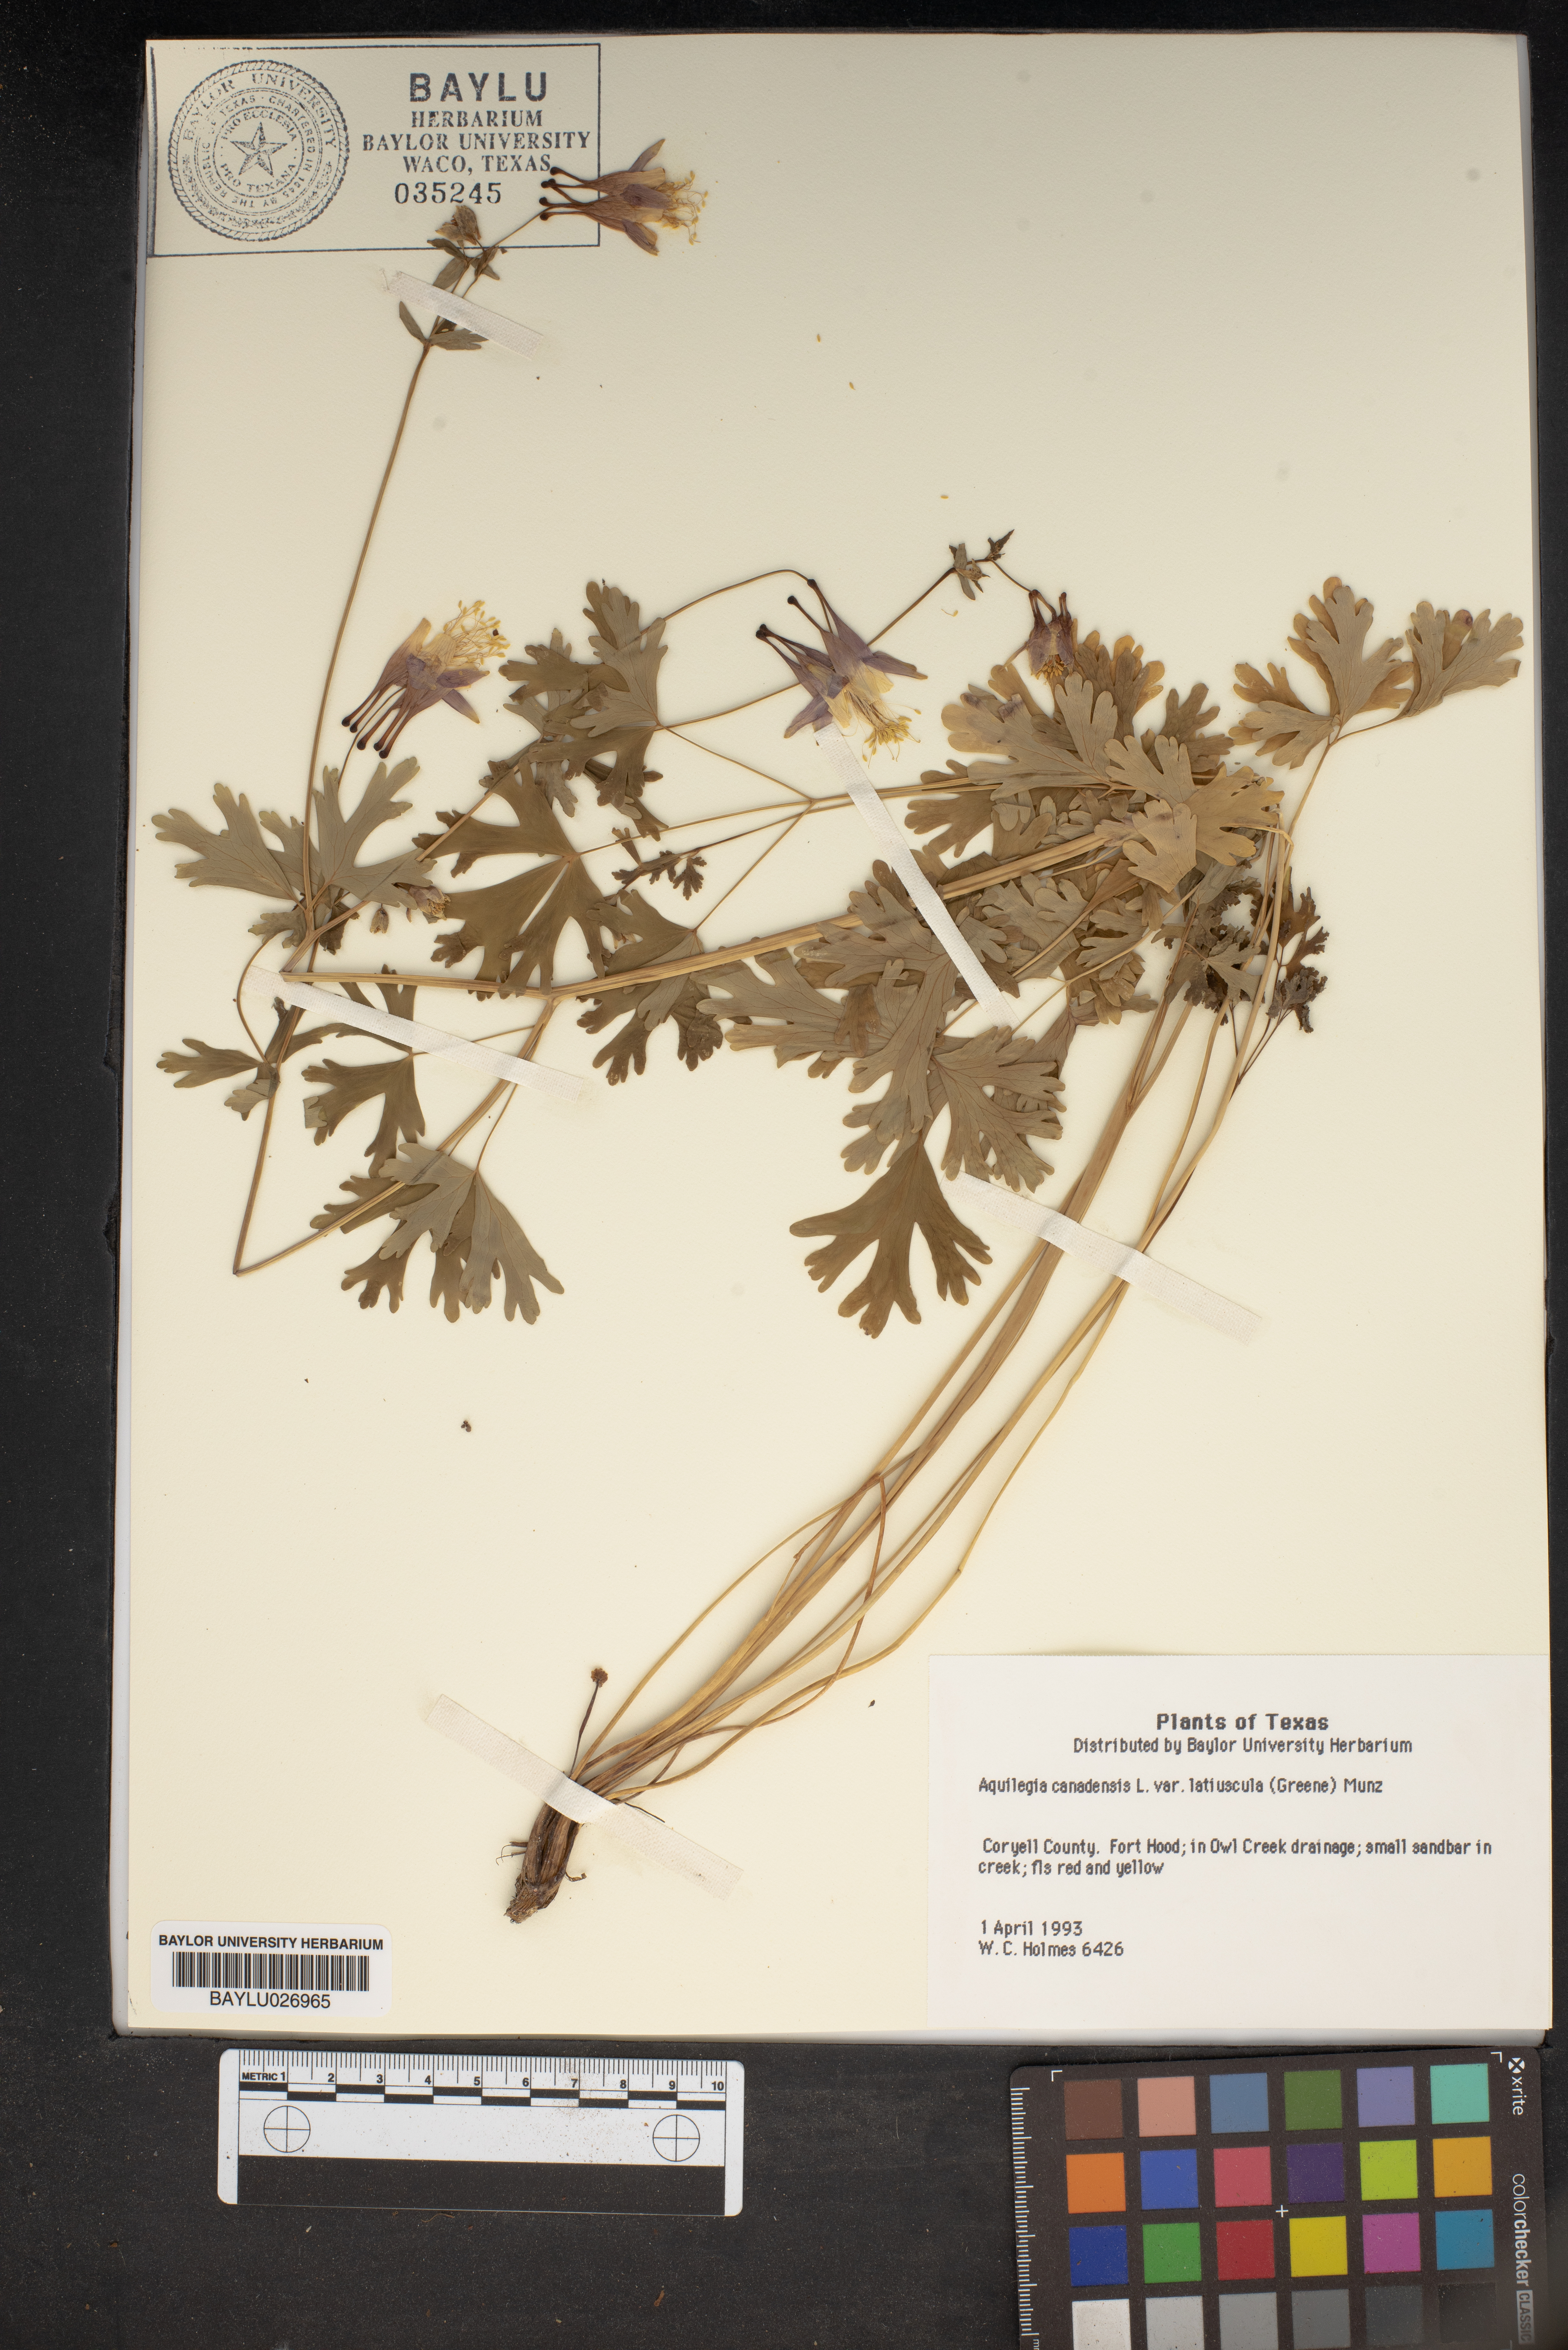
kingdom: Plantae
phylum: Tracheophyta
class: Magnoliopsida
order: Ranunculales
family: Ranunculaceae
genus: Aquilegia
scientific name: Aquilegia canadensis
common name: American columbine
